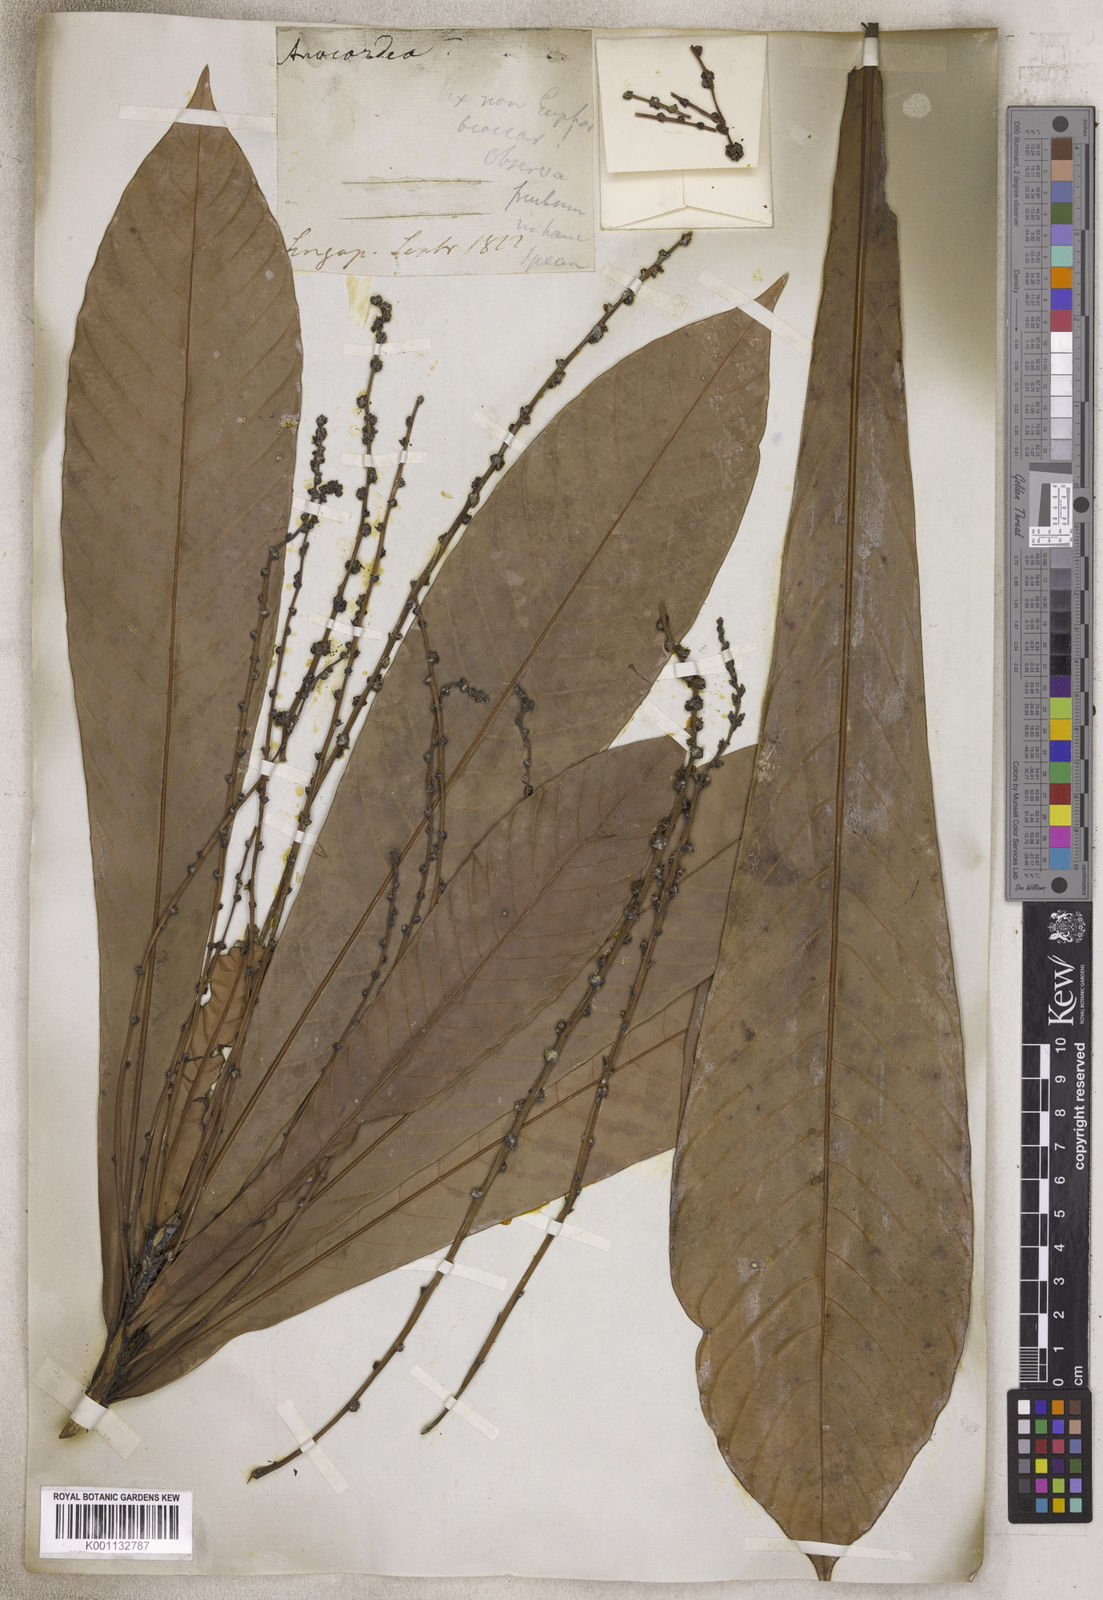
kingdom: Plantae
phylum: Tracheophyta
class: Magnoliopsida
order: Sapindales
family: Anacardiaceae
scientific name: Anacardiaceae
